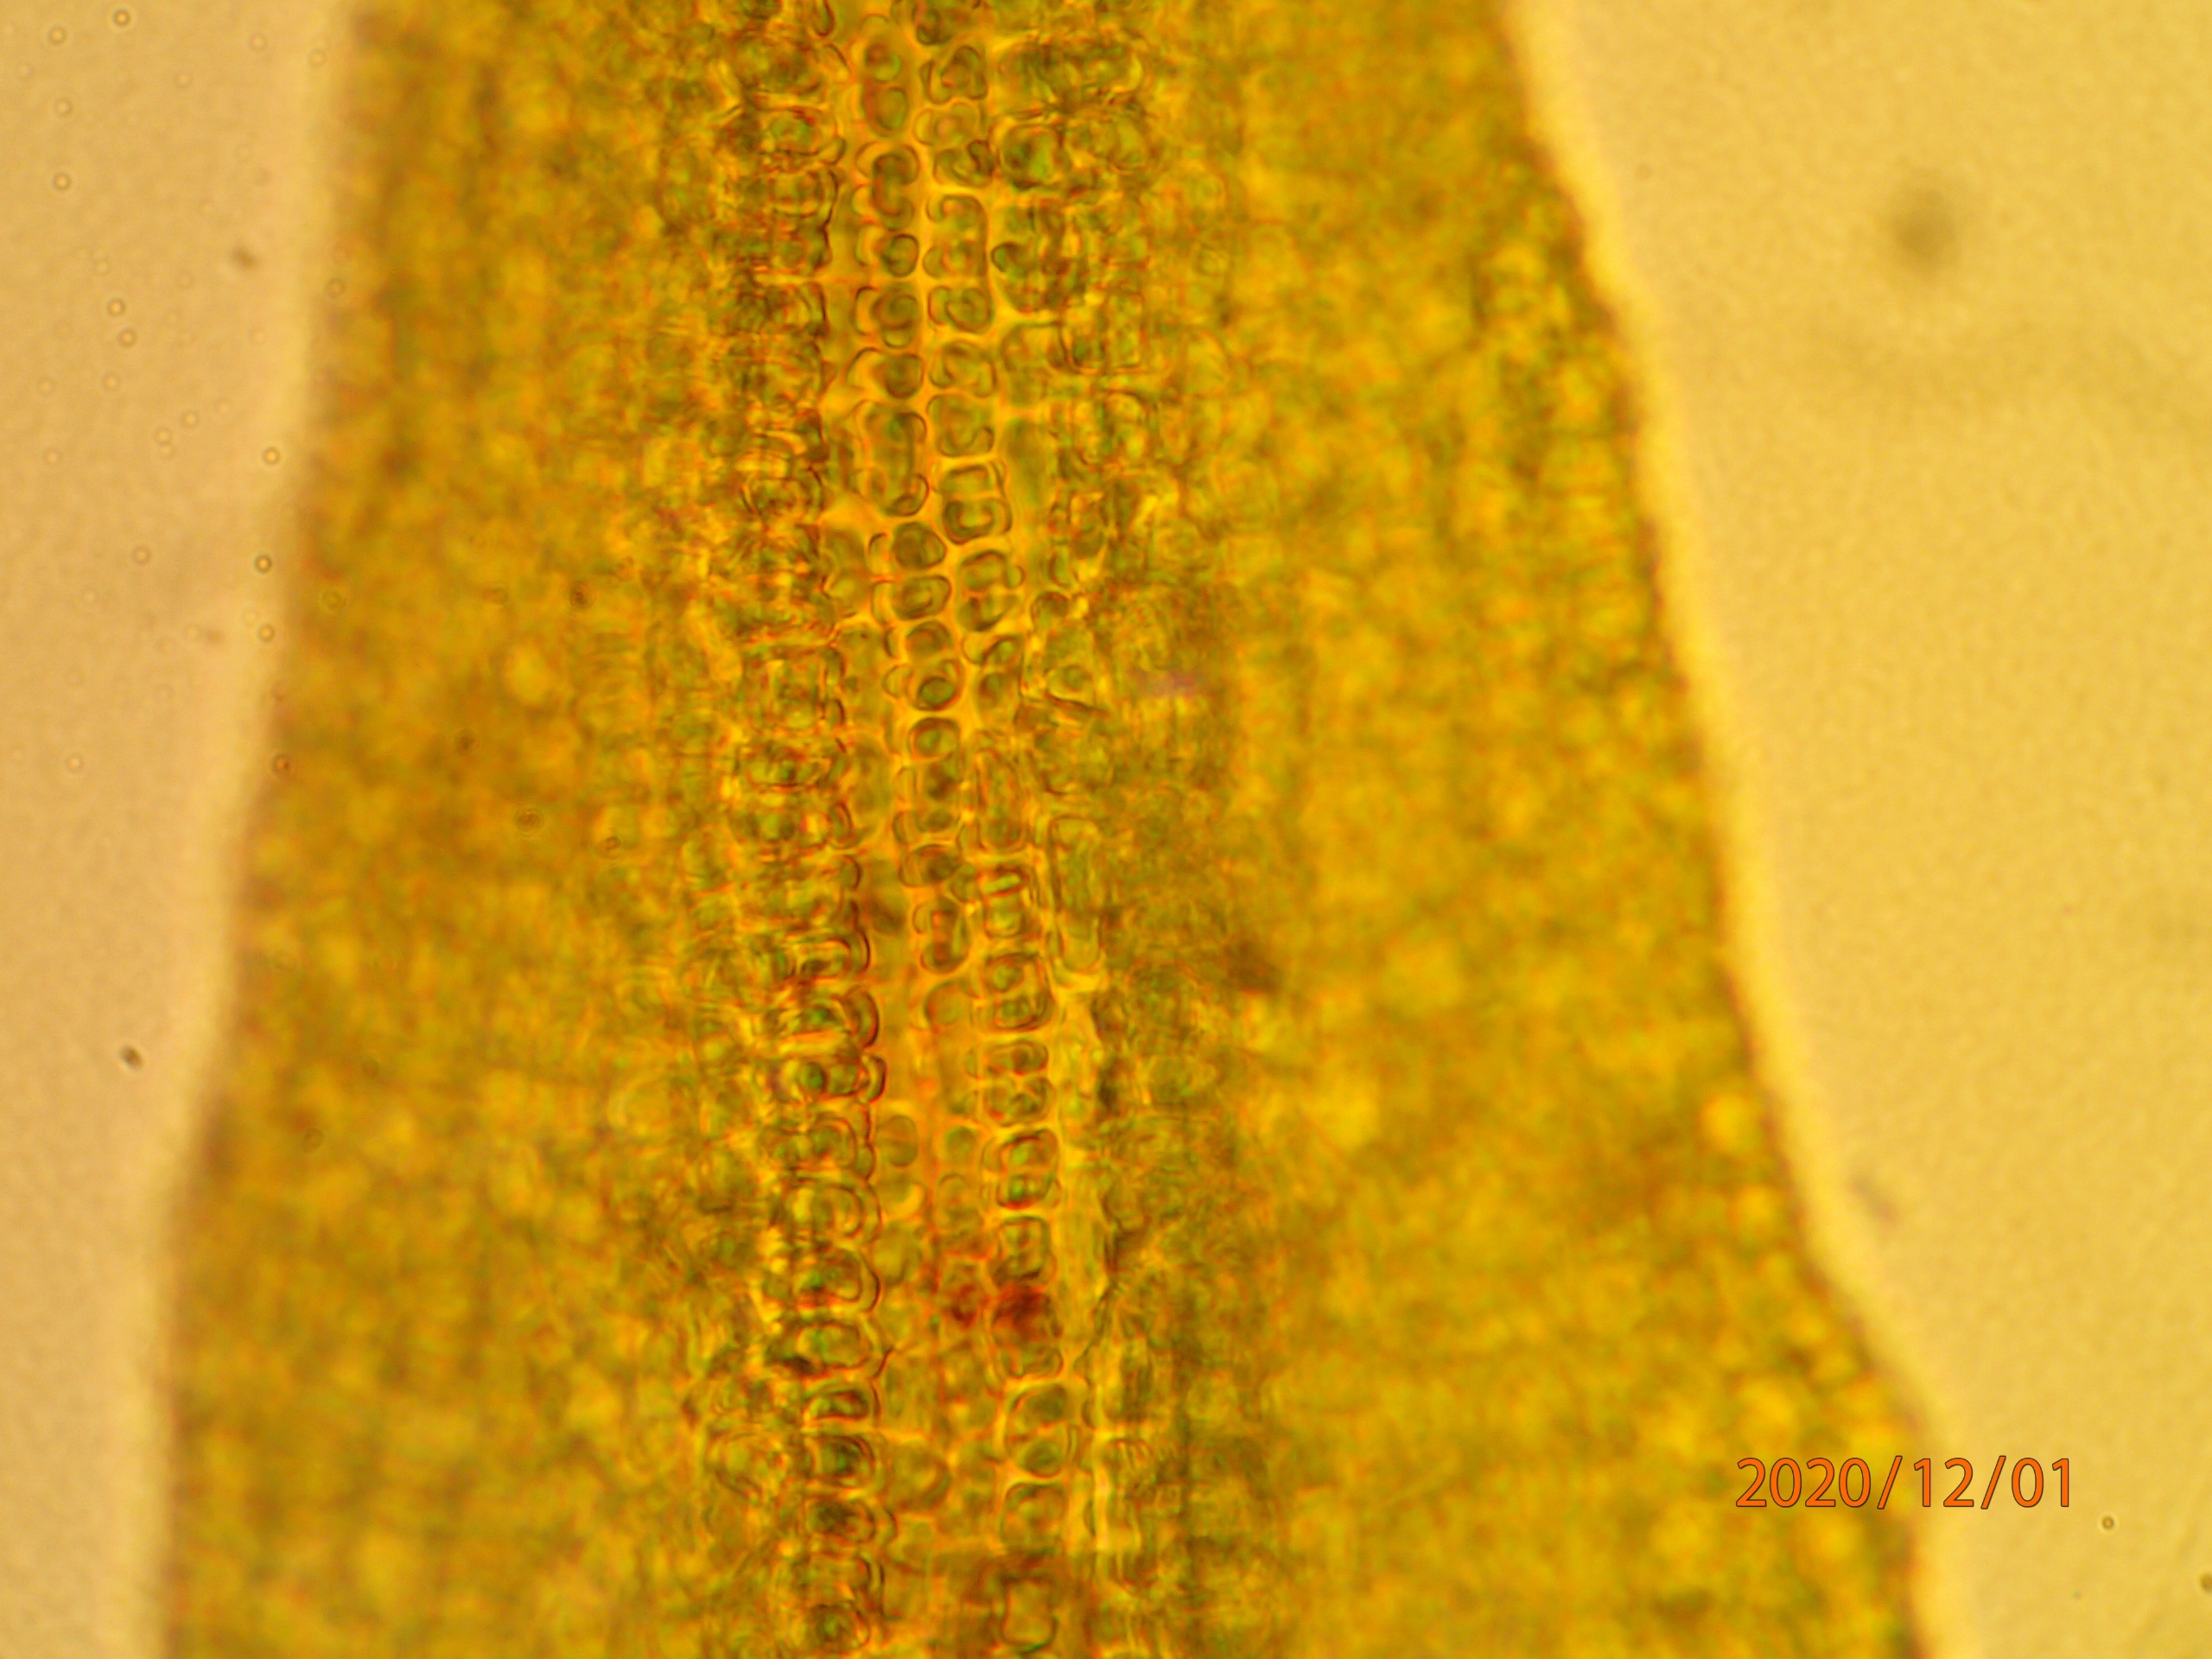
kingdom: Plantae
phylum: Bryophyta
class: Bryopsida
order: Pottiales
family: Pottiaceae
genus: Vinealobryum
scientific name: Vinealobryum insulanum
